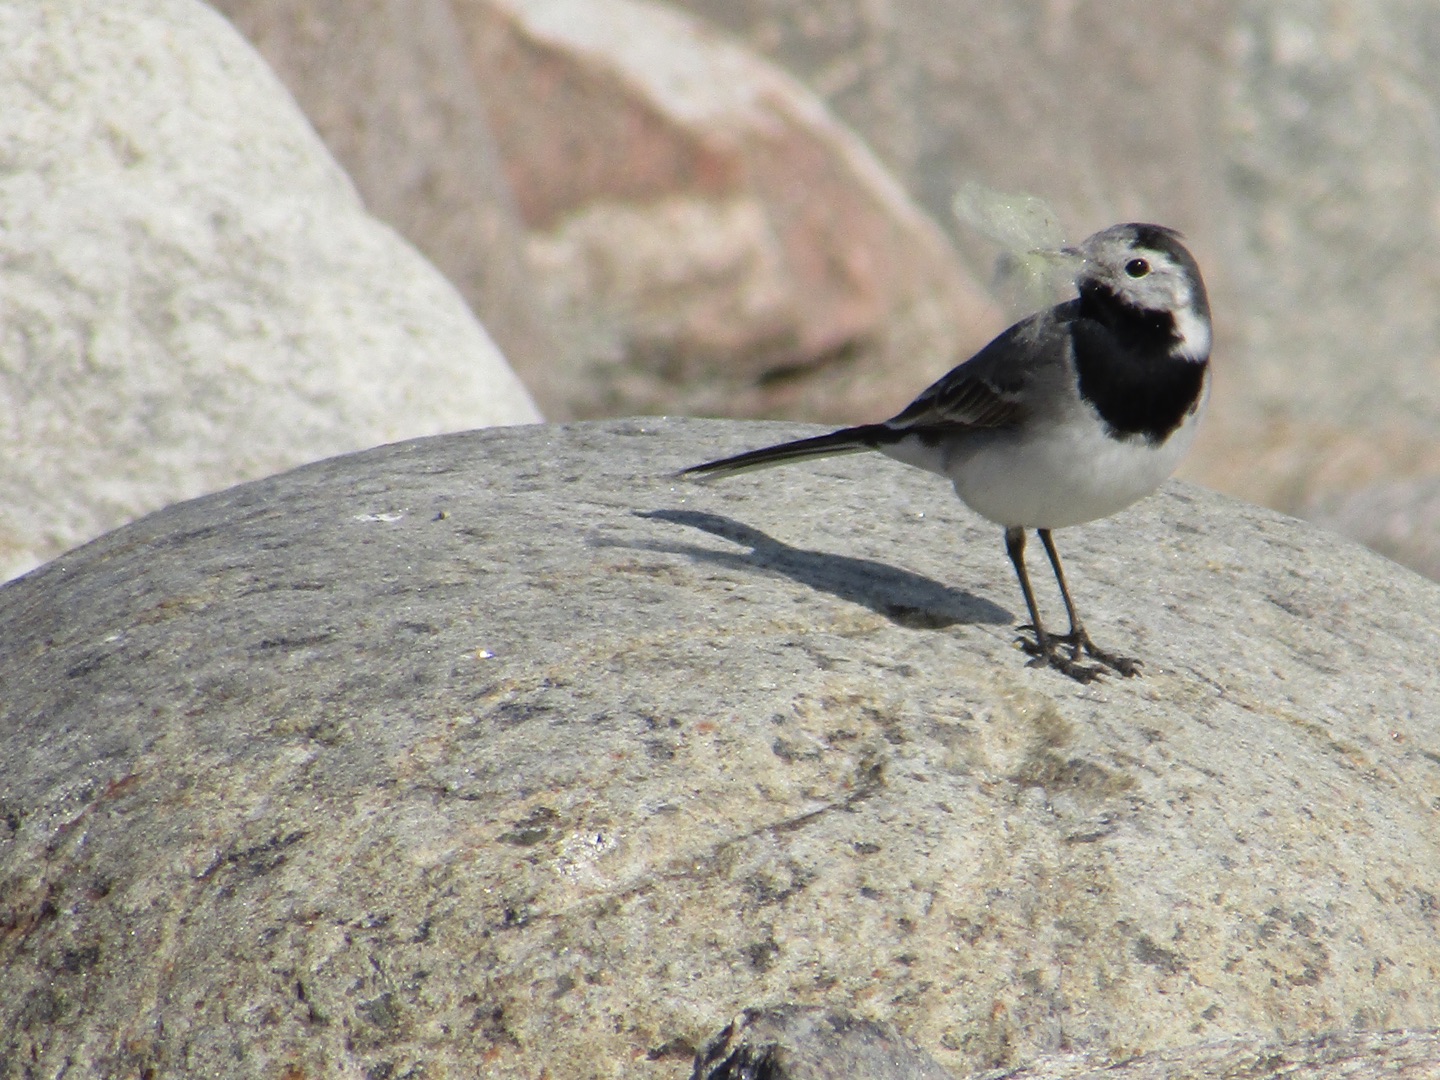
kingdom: Animalia
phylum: Chordata
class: Aves
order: Passeriformes
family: Motacillidae
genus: Motacilla
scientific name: Motacilla alba
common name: Hvid vipstjert
